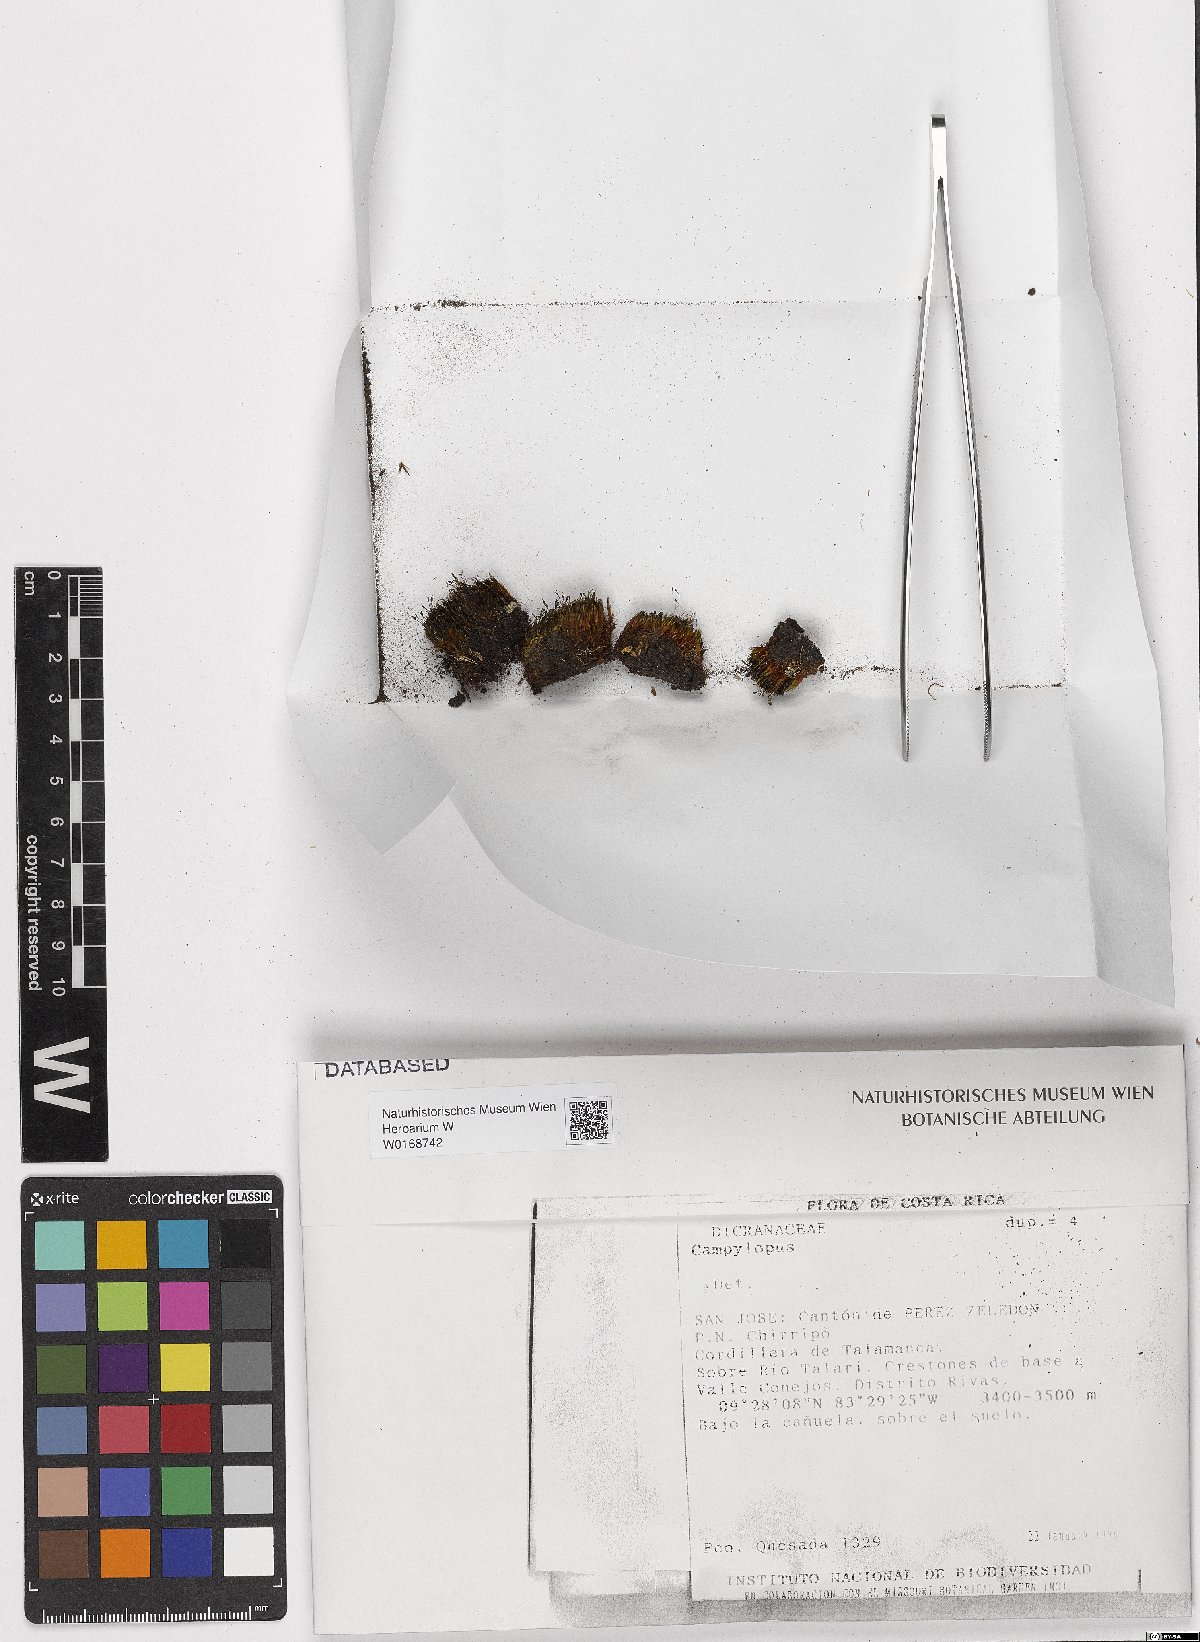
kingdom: Plantae
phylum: Bryophyta
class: Bryopsida
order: Dicranales
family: Leucobryaceae
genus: Campylopus
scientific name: Campylopus
